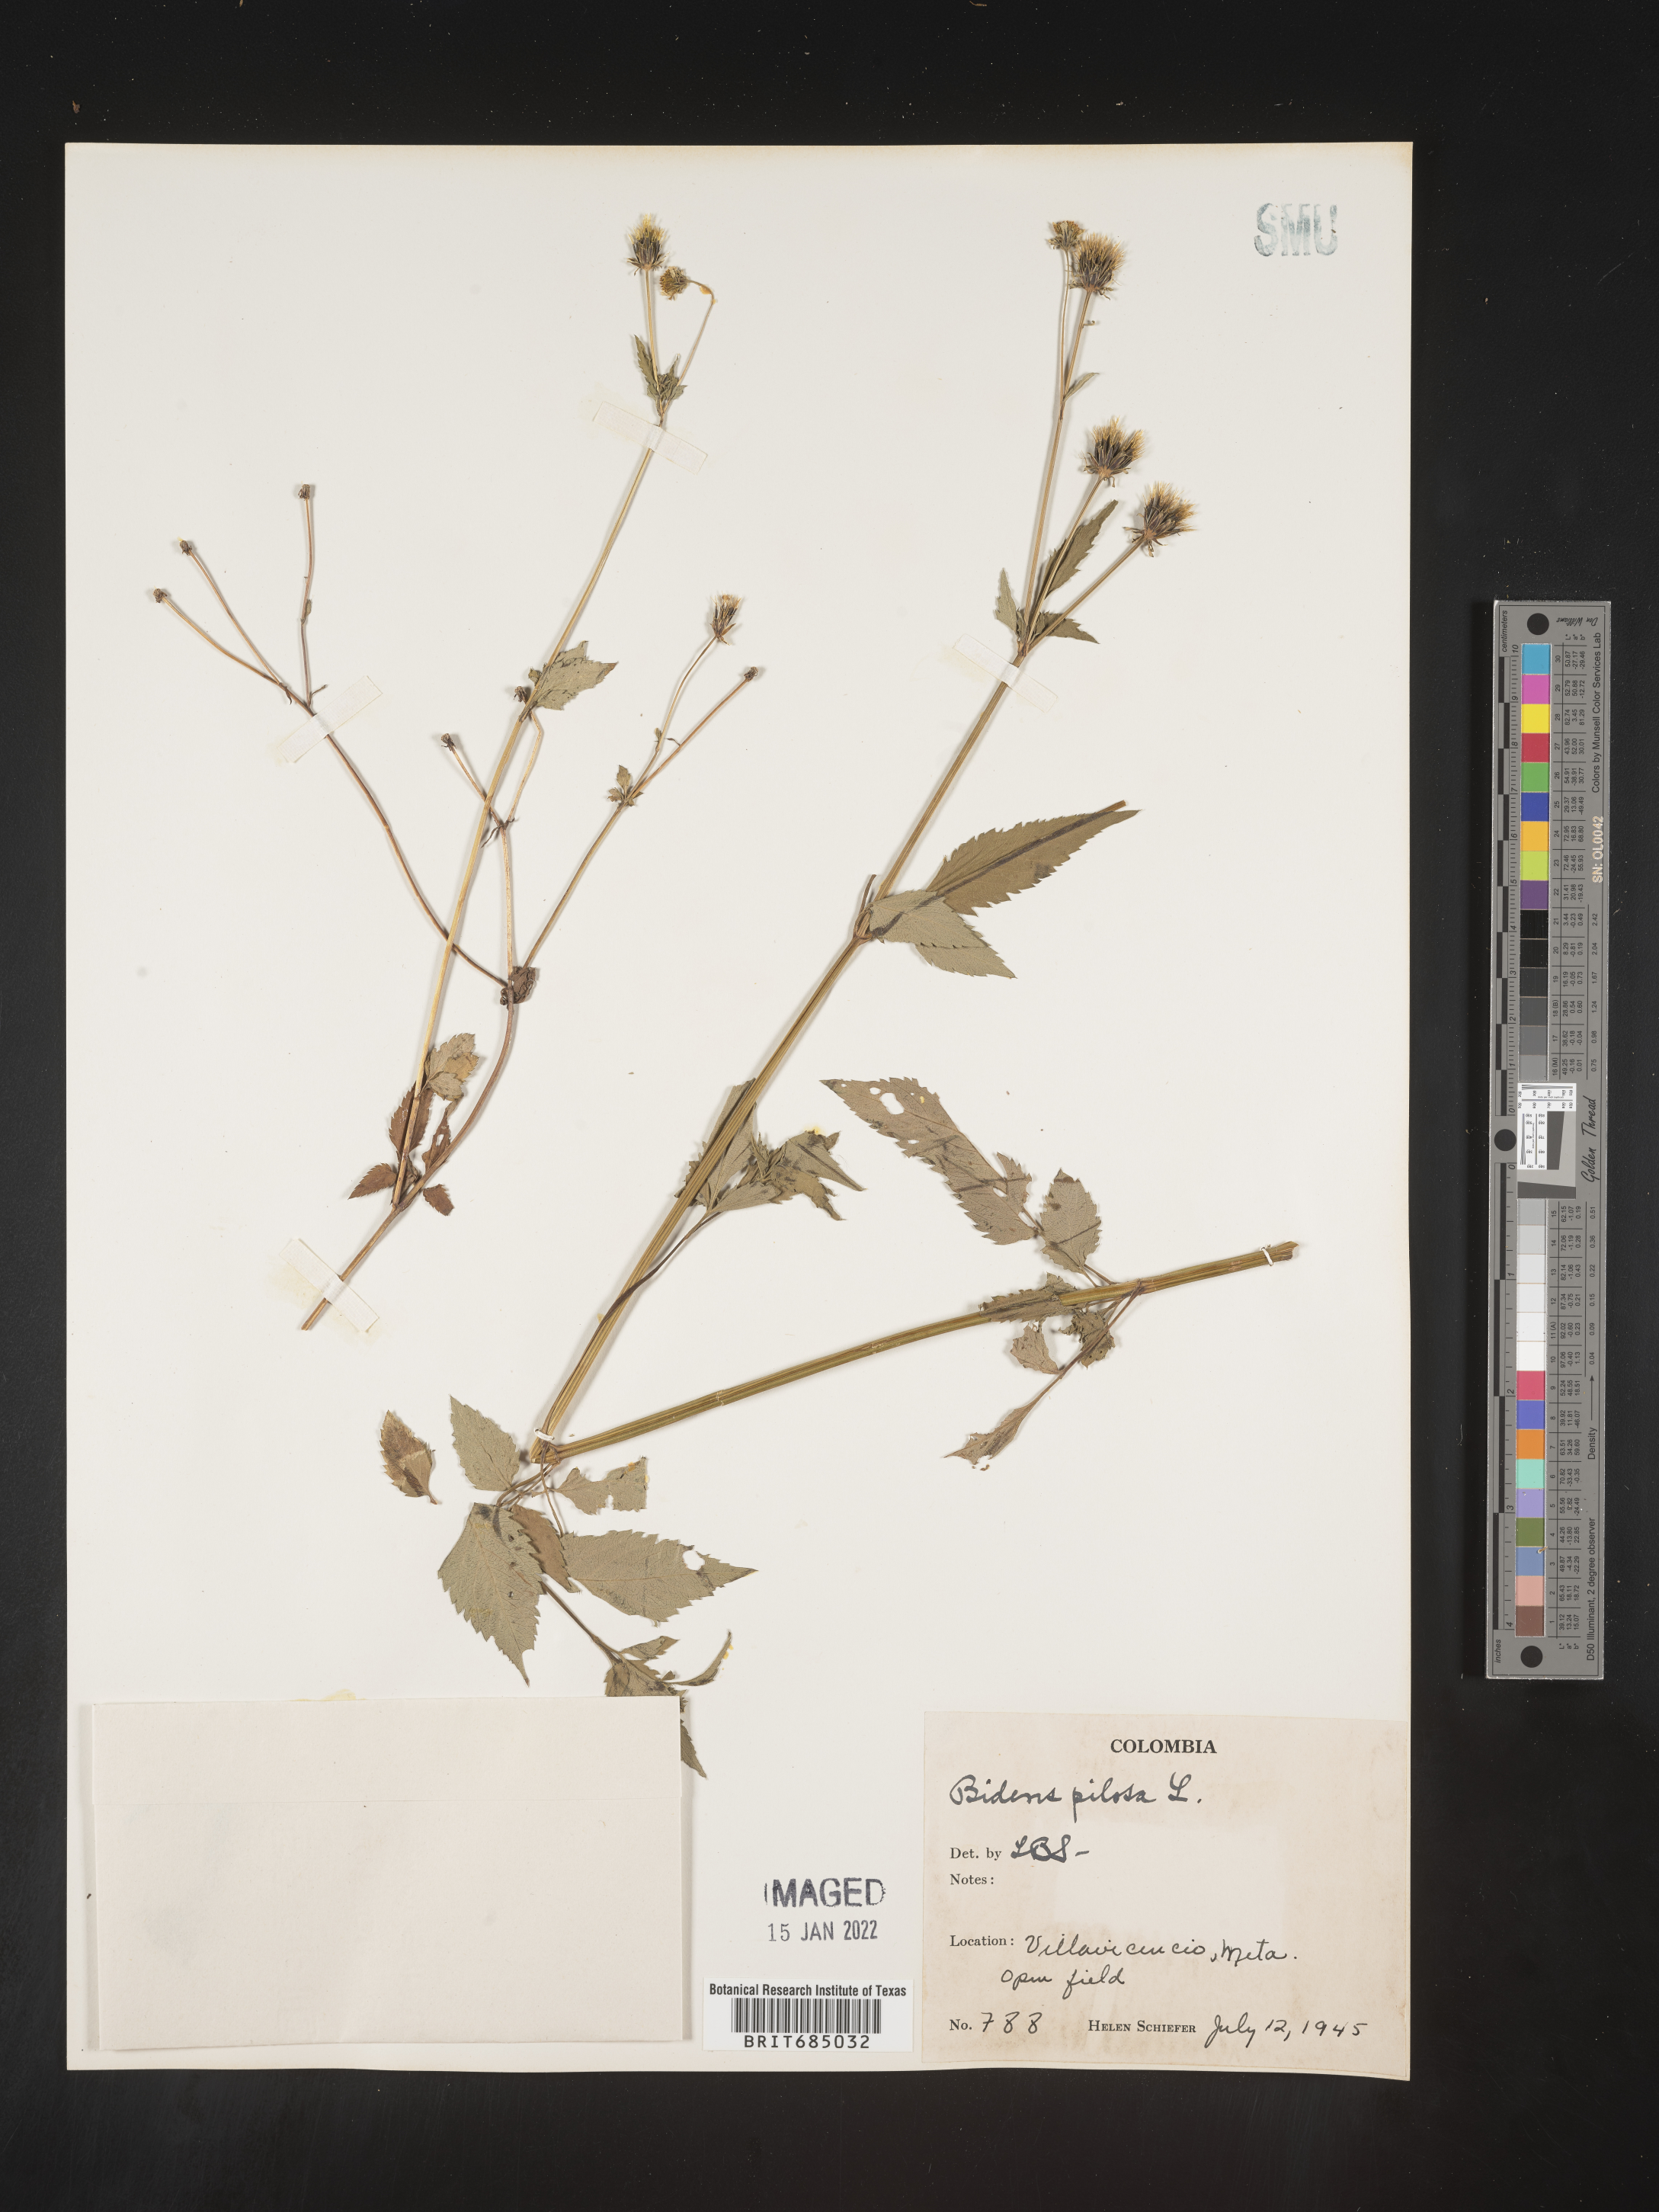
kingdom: Plantae
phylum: Tracheophyta
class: Magnoliopsida
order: Asterales
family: Asteraceae
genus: Bidens
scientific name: Bidens
